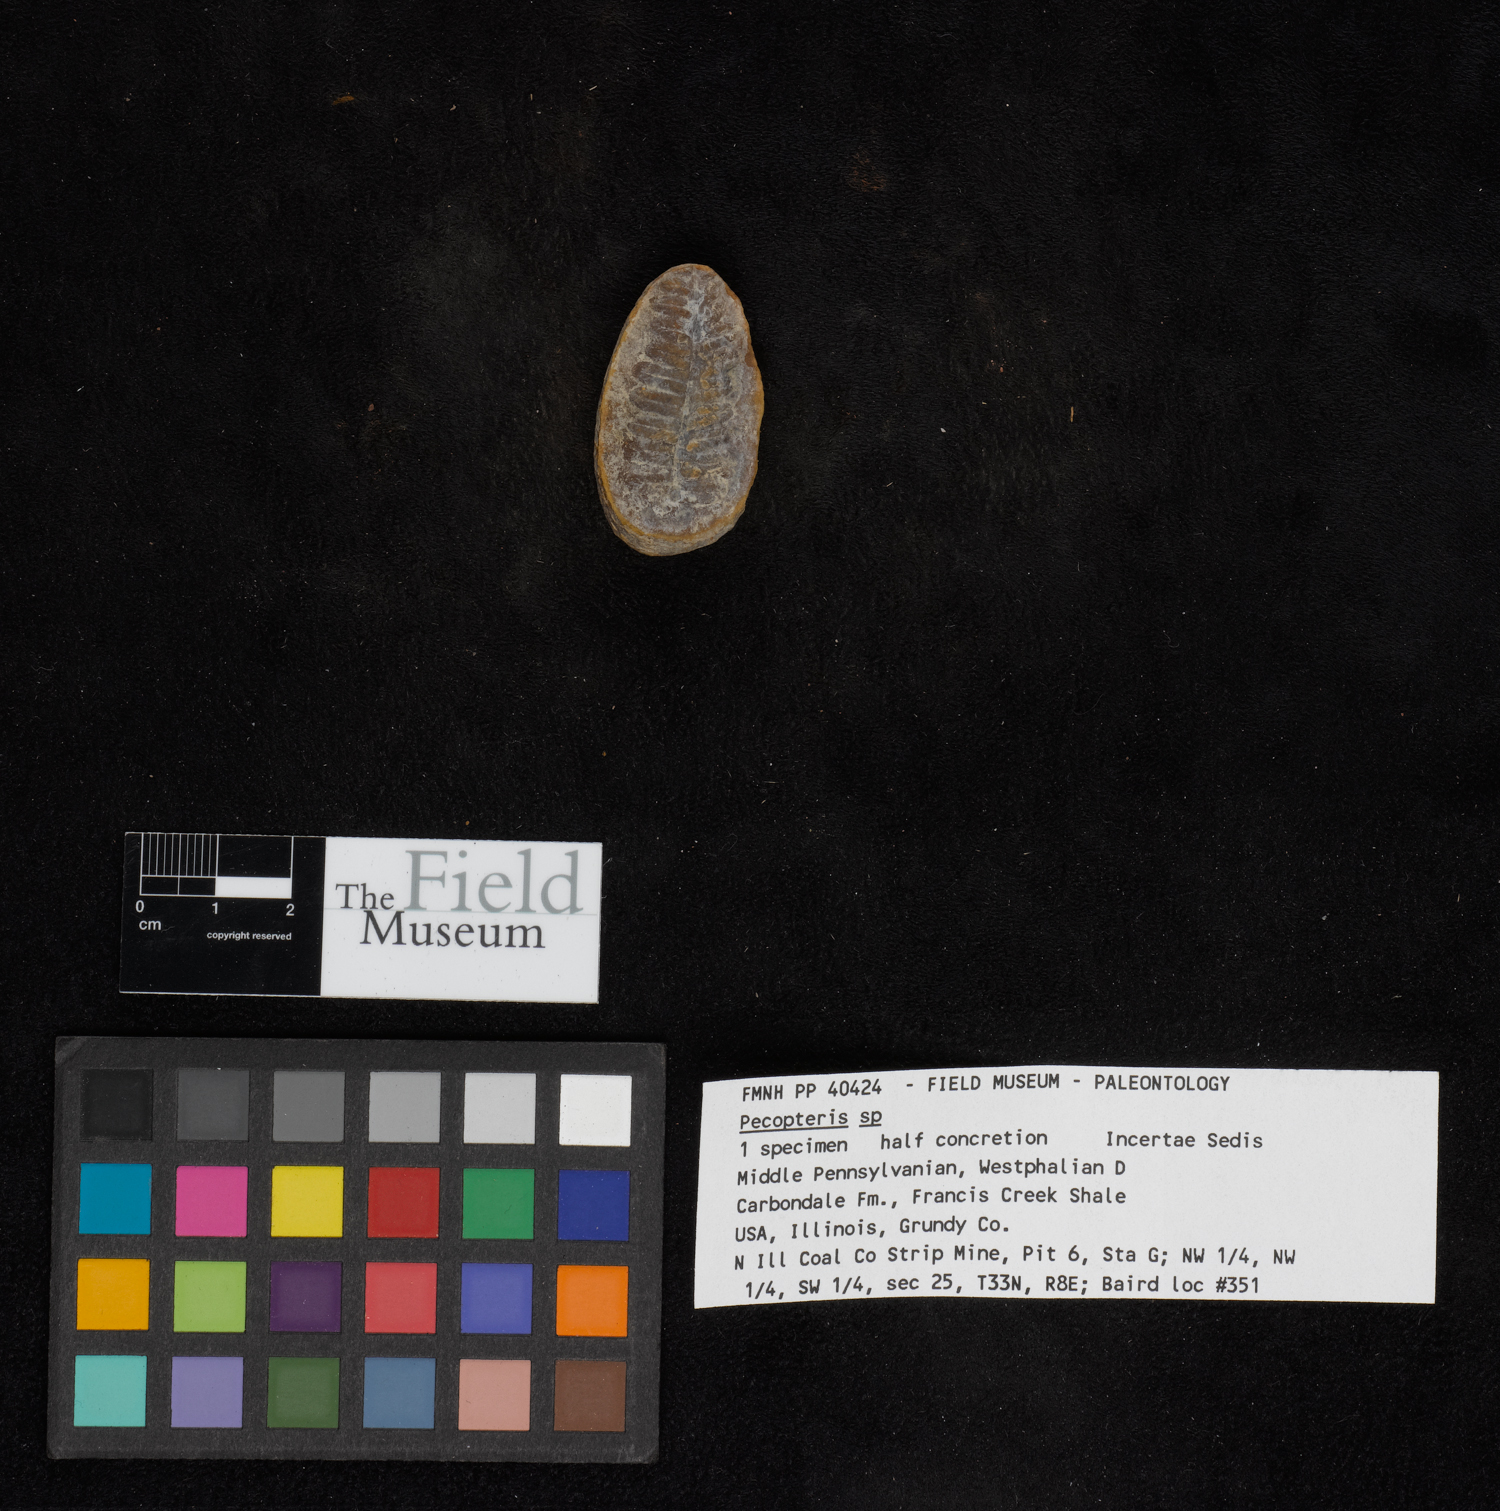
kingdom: Plantae
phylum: Tracheophyta
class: Polypodiopsida
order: Marattiales
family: Asterothecaceae
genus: Pecopteris
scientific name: Pecopteris
